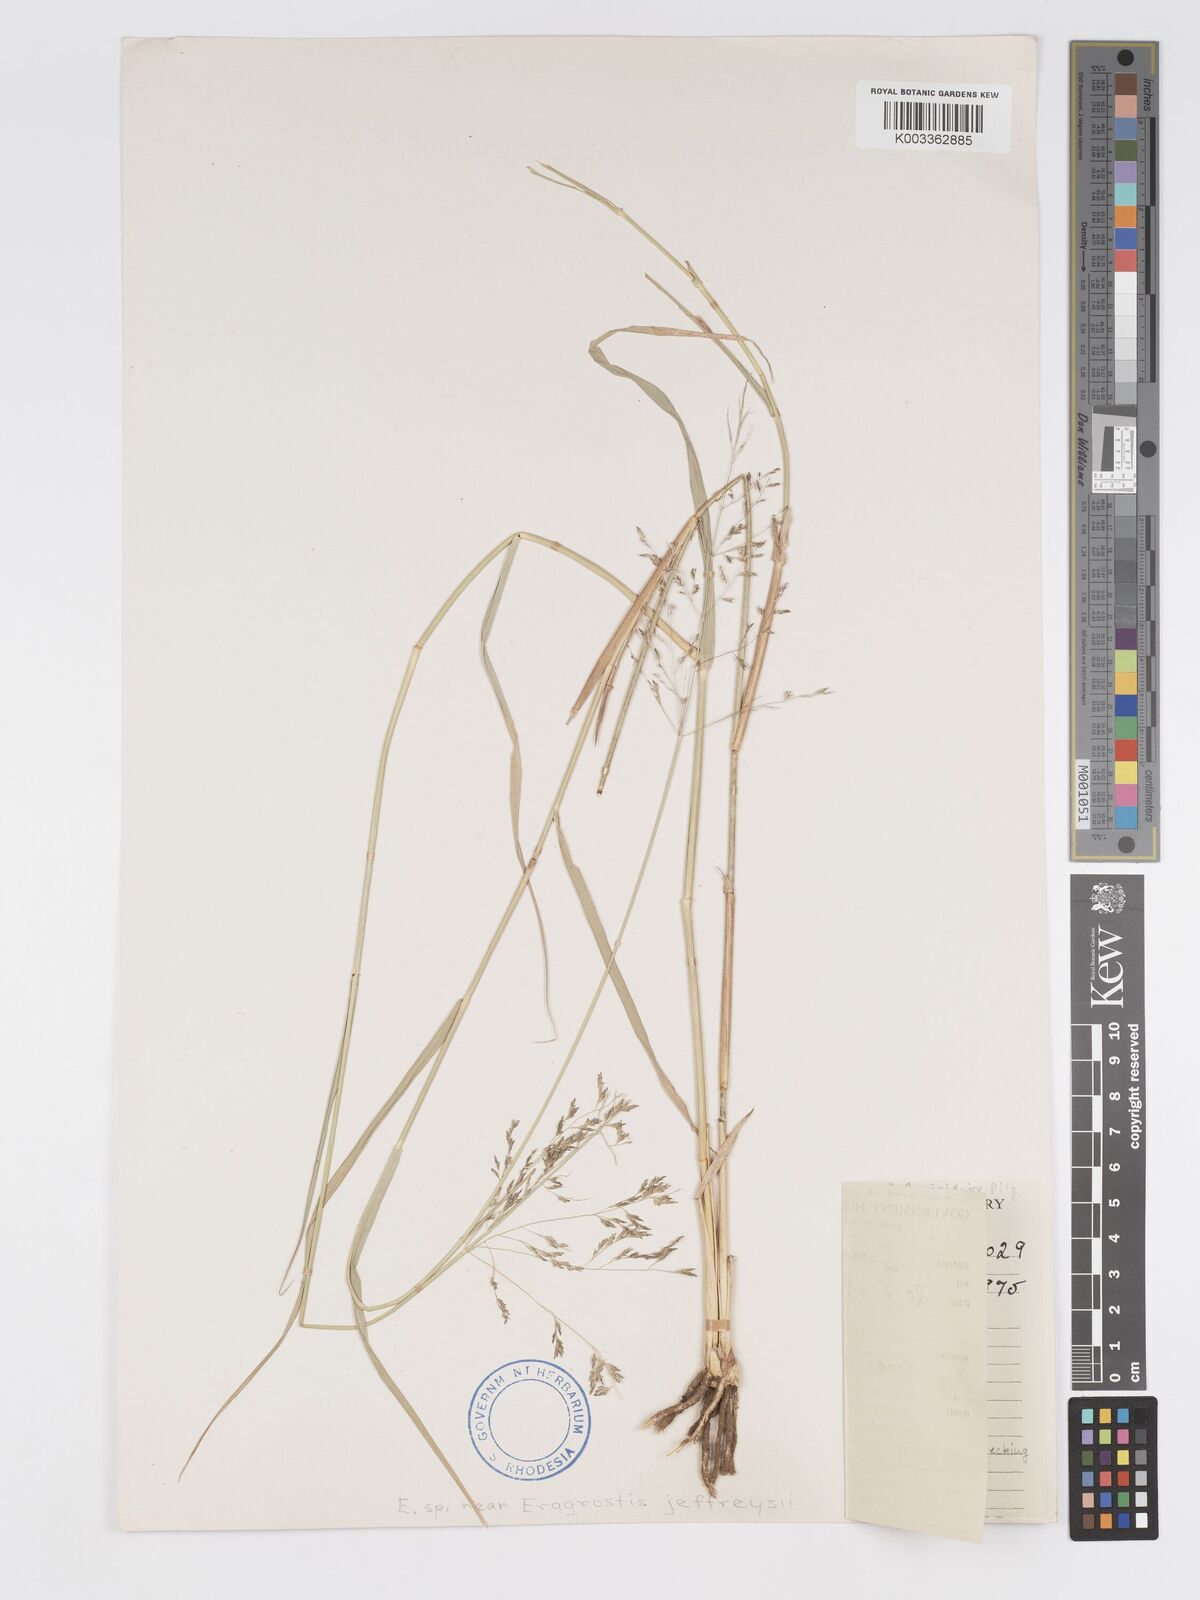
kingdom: Plantae
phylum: Tracheophyta
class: Liliopsida
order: Poales
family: Poaceae
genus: Eragrostis
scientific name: Eragrostis cylindriflora
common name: Cylinderflower lovegrass
